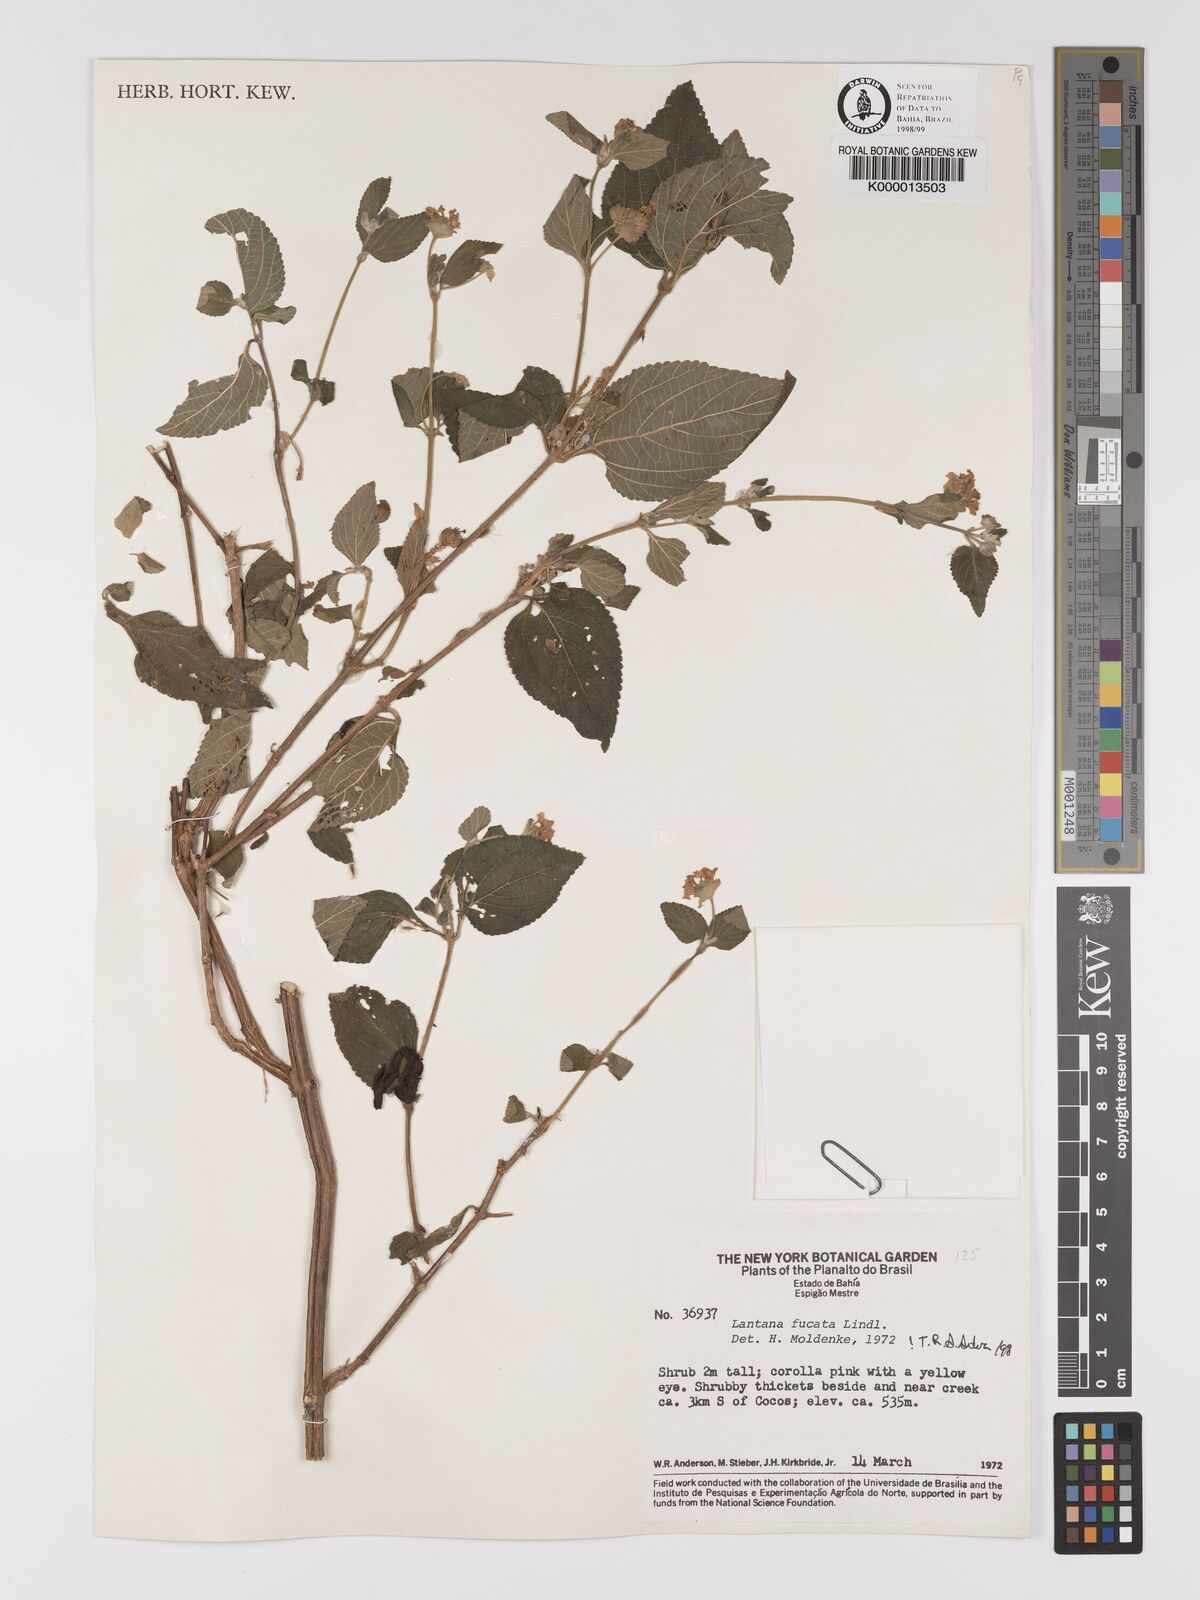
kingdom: Plantae
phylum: Tracheophyta
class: Magnoliopsida
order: Lamiales
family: Verbenaceae
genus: Lantana
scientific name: Lantana fucata
